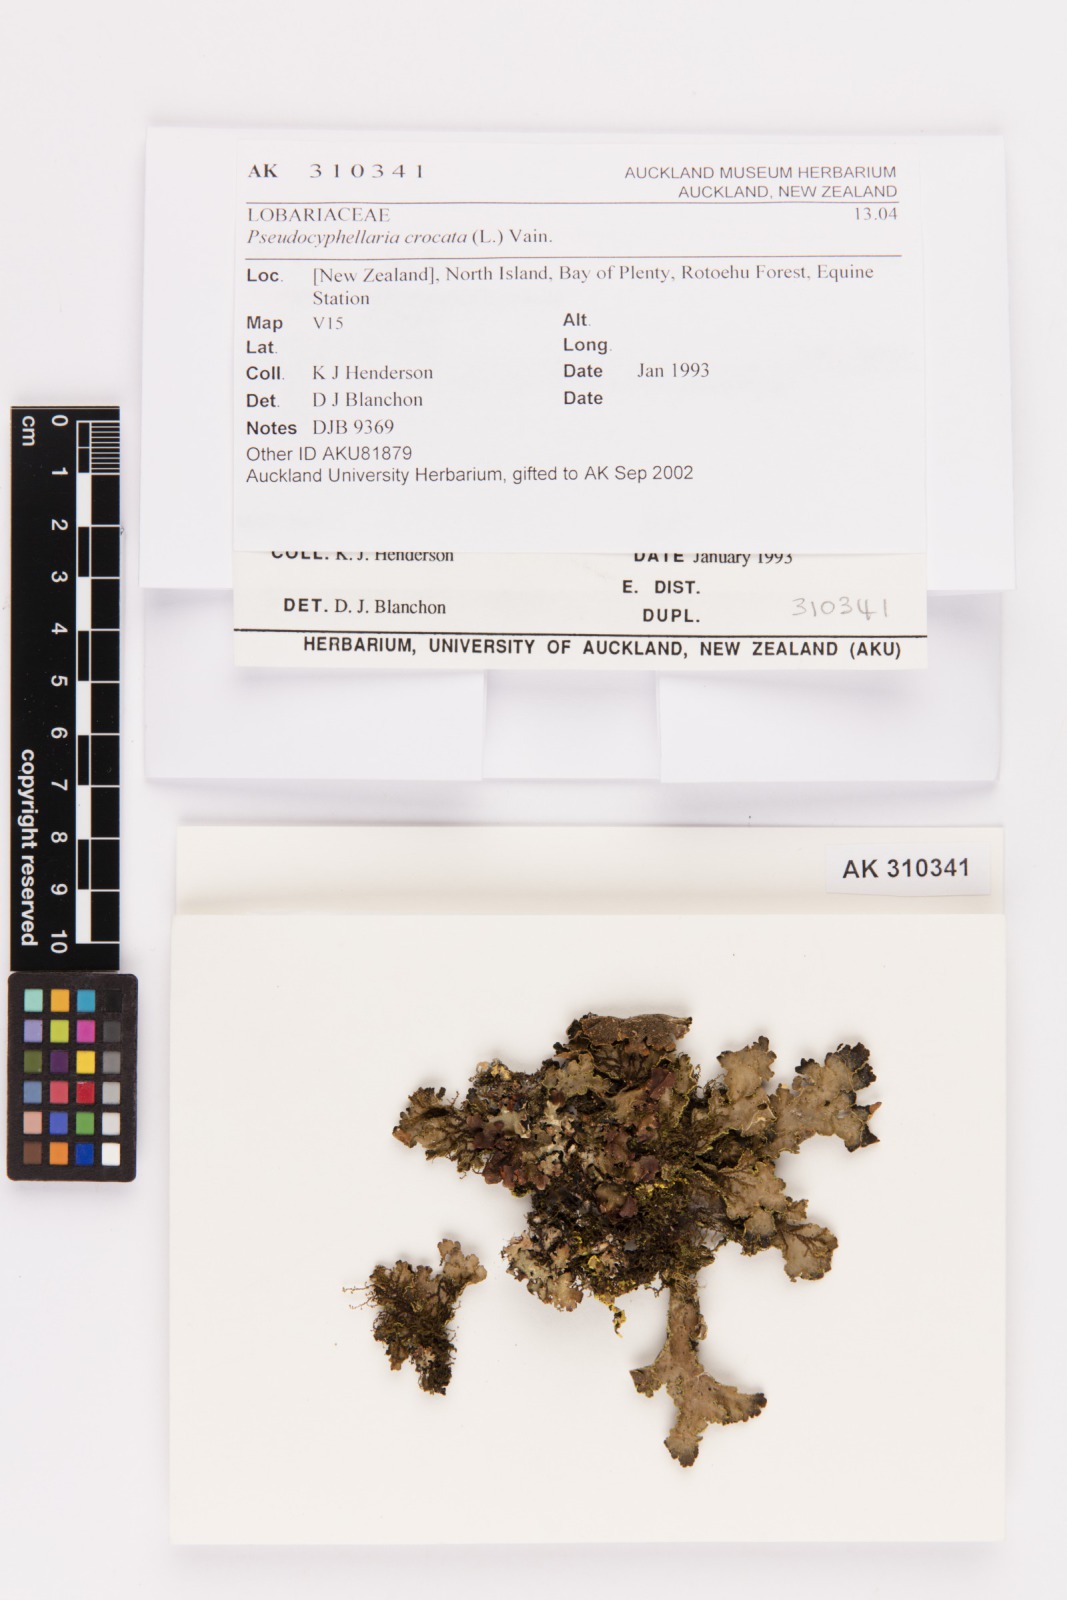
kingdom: Fungi
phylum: Ascomycota
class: Lecanoromycetes
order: Peltigerales
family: Lobariaceae
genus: Pseudocyphellaria
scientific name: Pseudocyphellaria crocata
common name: Golden specklebelly
